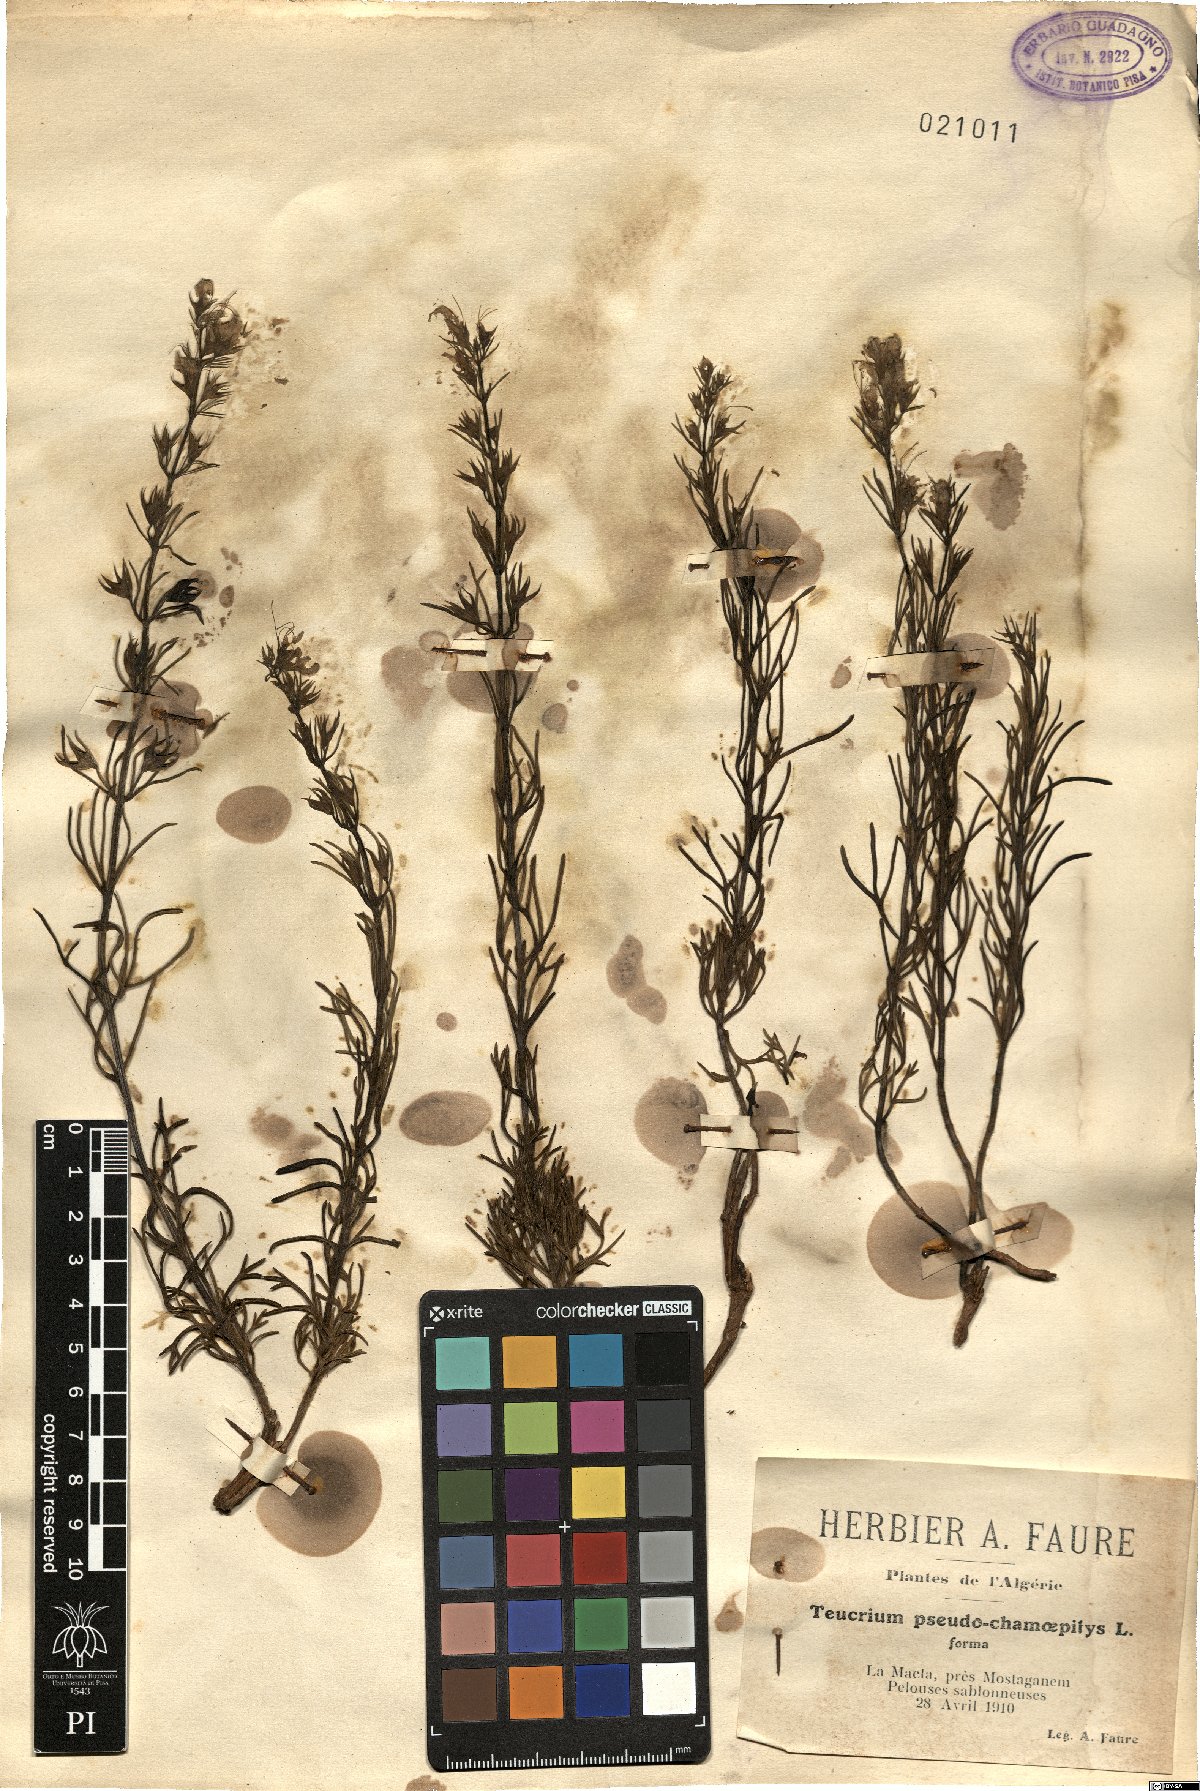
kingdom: Plantae
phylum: Tracheophyta
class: Magnoliopsida
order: Lamiales
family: Lamiaceae
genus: Teucrium
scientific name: Teucrium pseudochamaepitys
